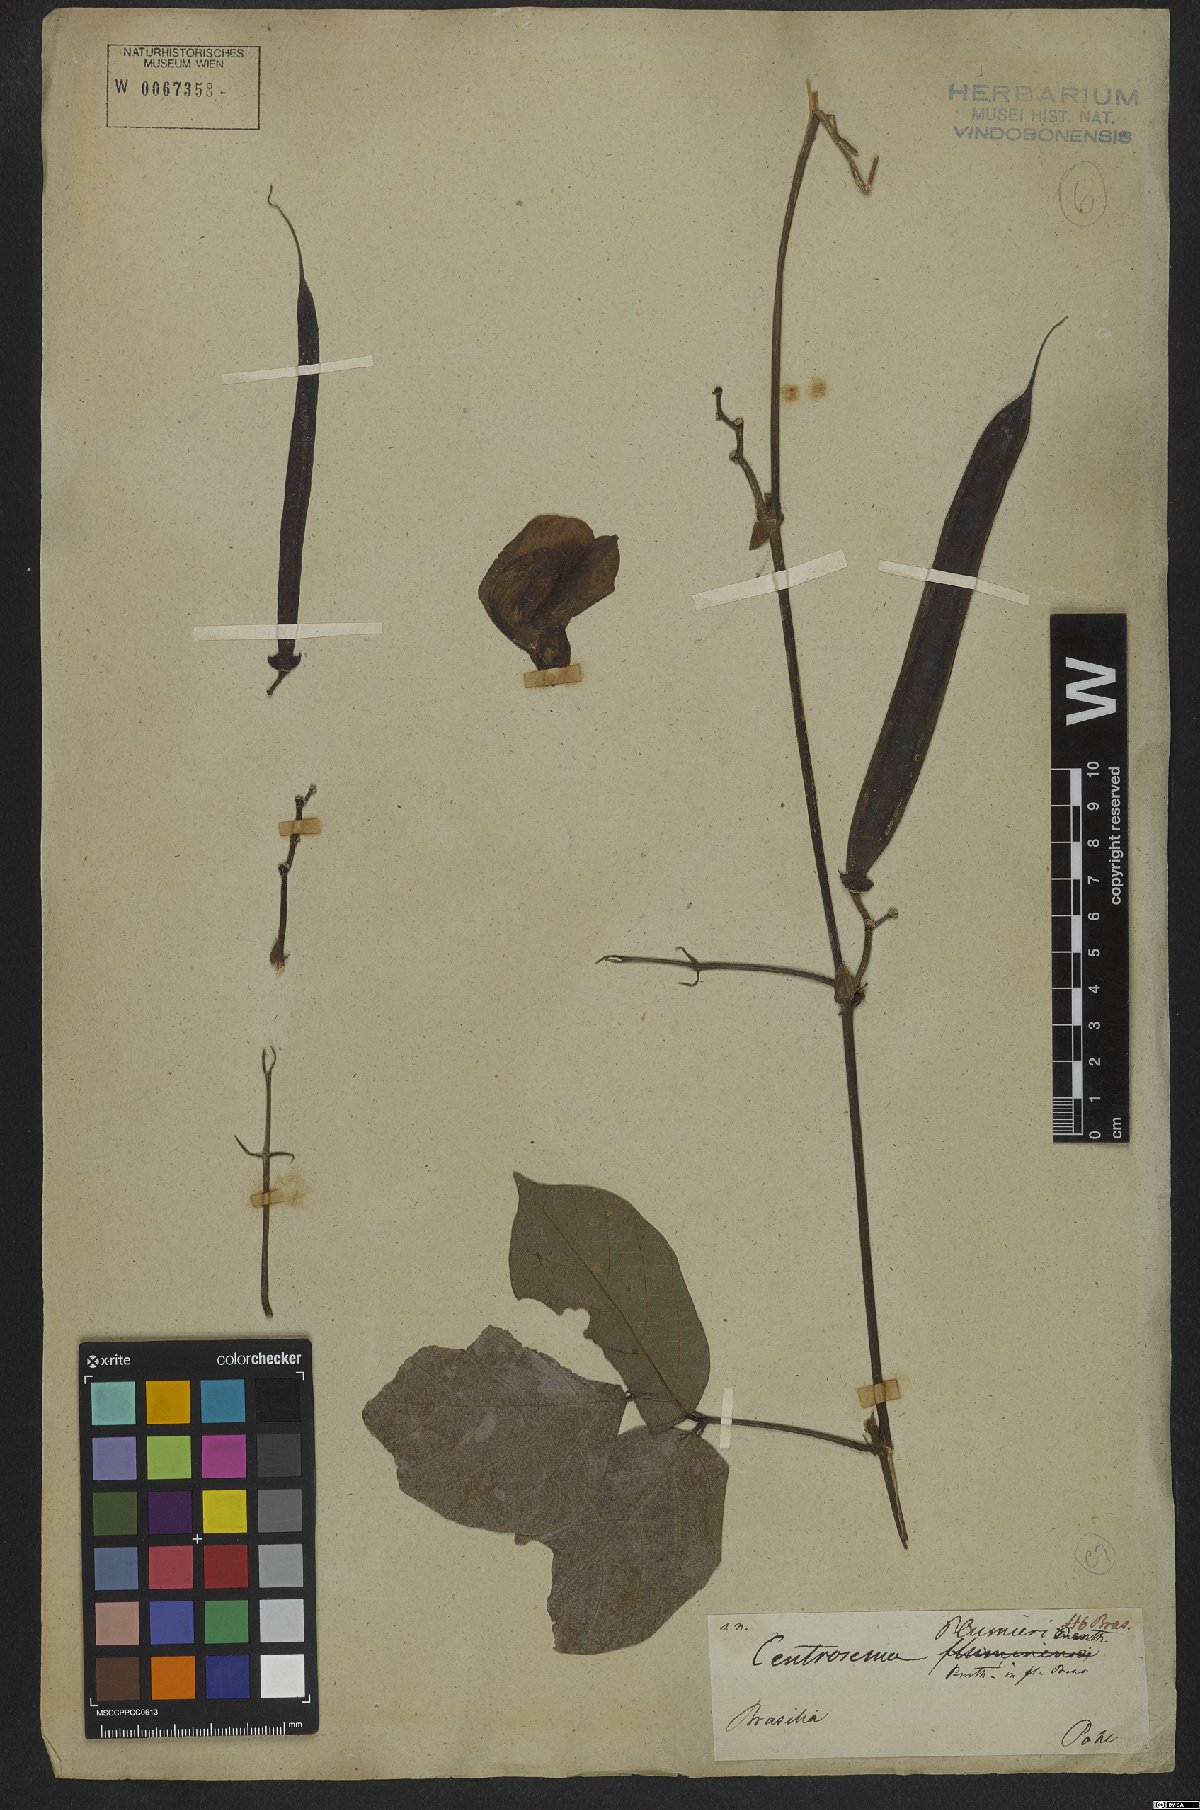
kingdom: Plantae
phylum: Tracheophyta
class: Magnoliopsida
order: Fabales
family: Fabaceae
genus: Centrosema
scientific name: Centrosema plumieri
